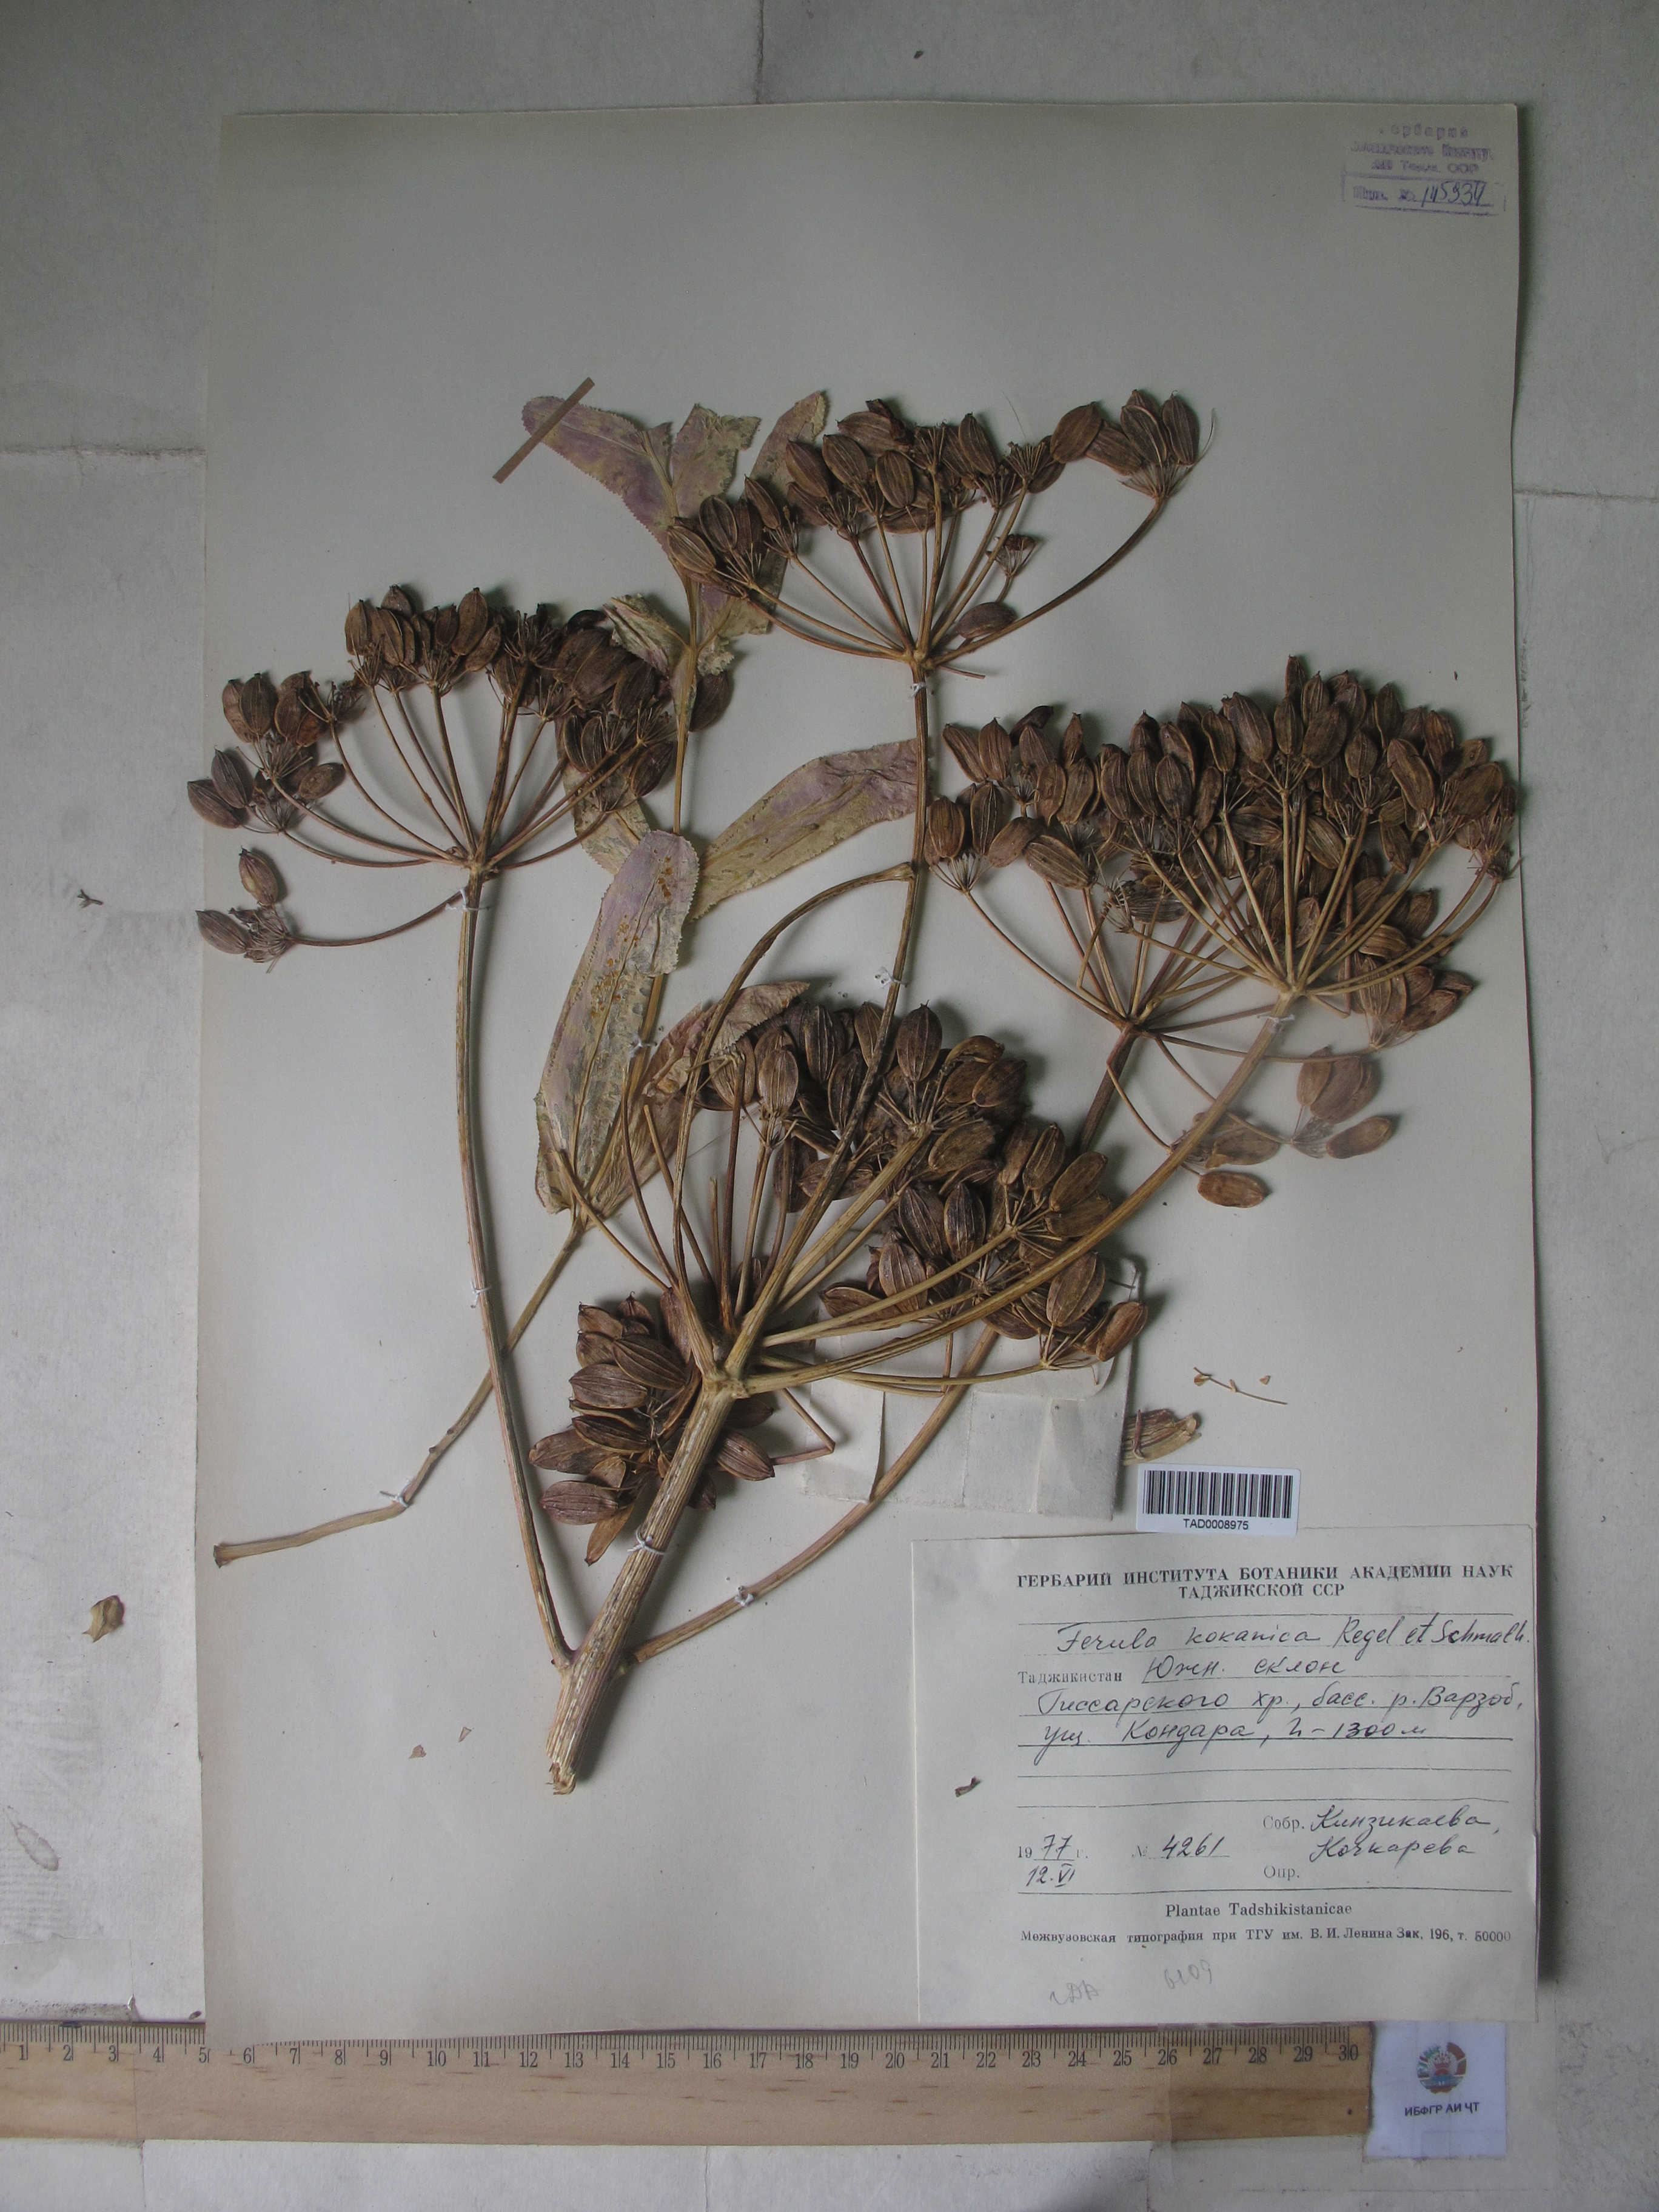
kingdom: Plantae
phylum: Tracheophyta
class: Magnoliopsida
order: Apiales
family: Apiaceae
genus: Ferula
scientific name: Ferula kokanica
